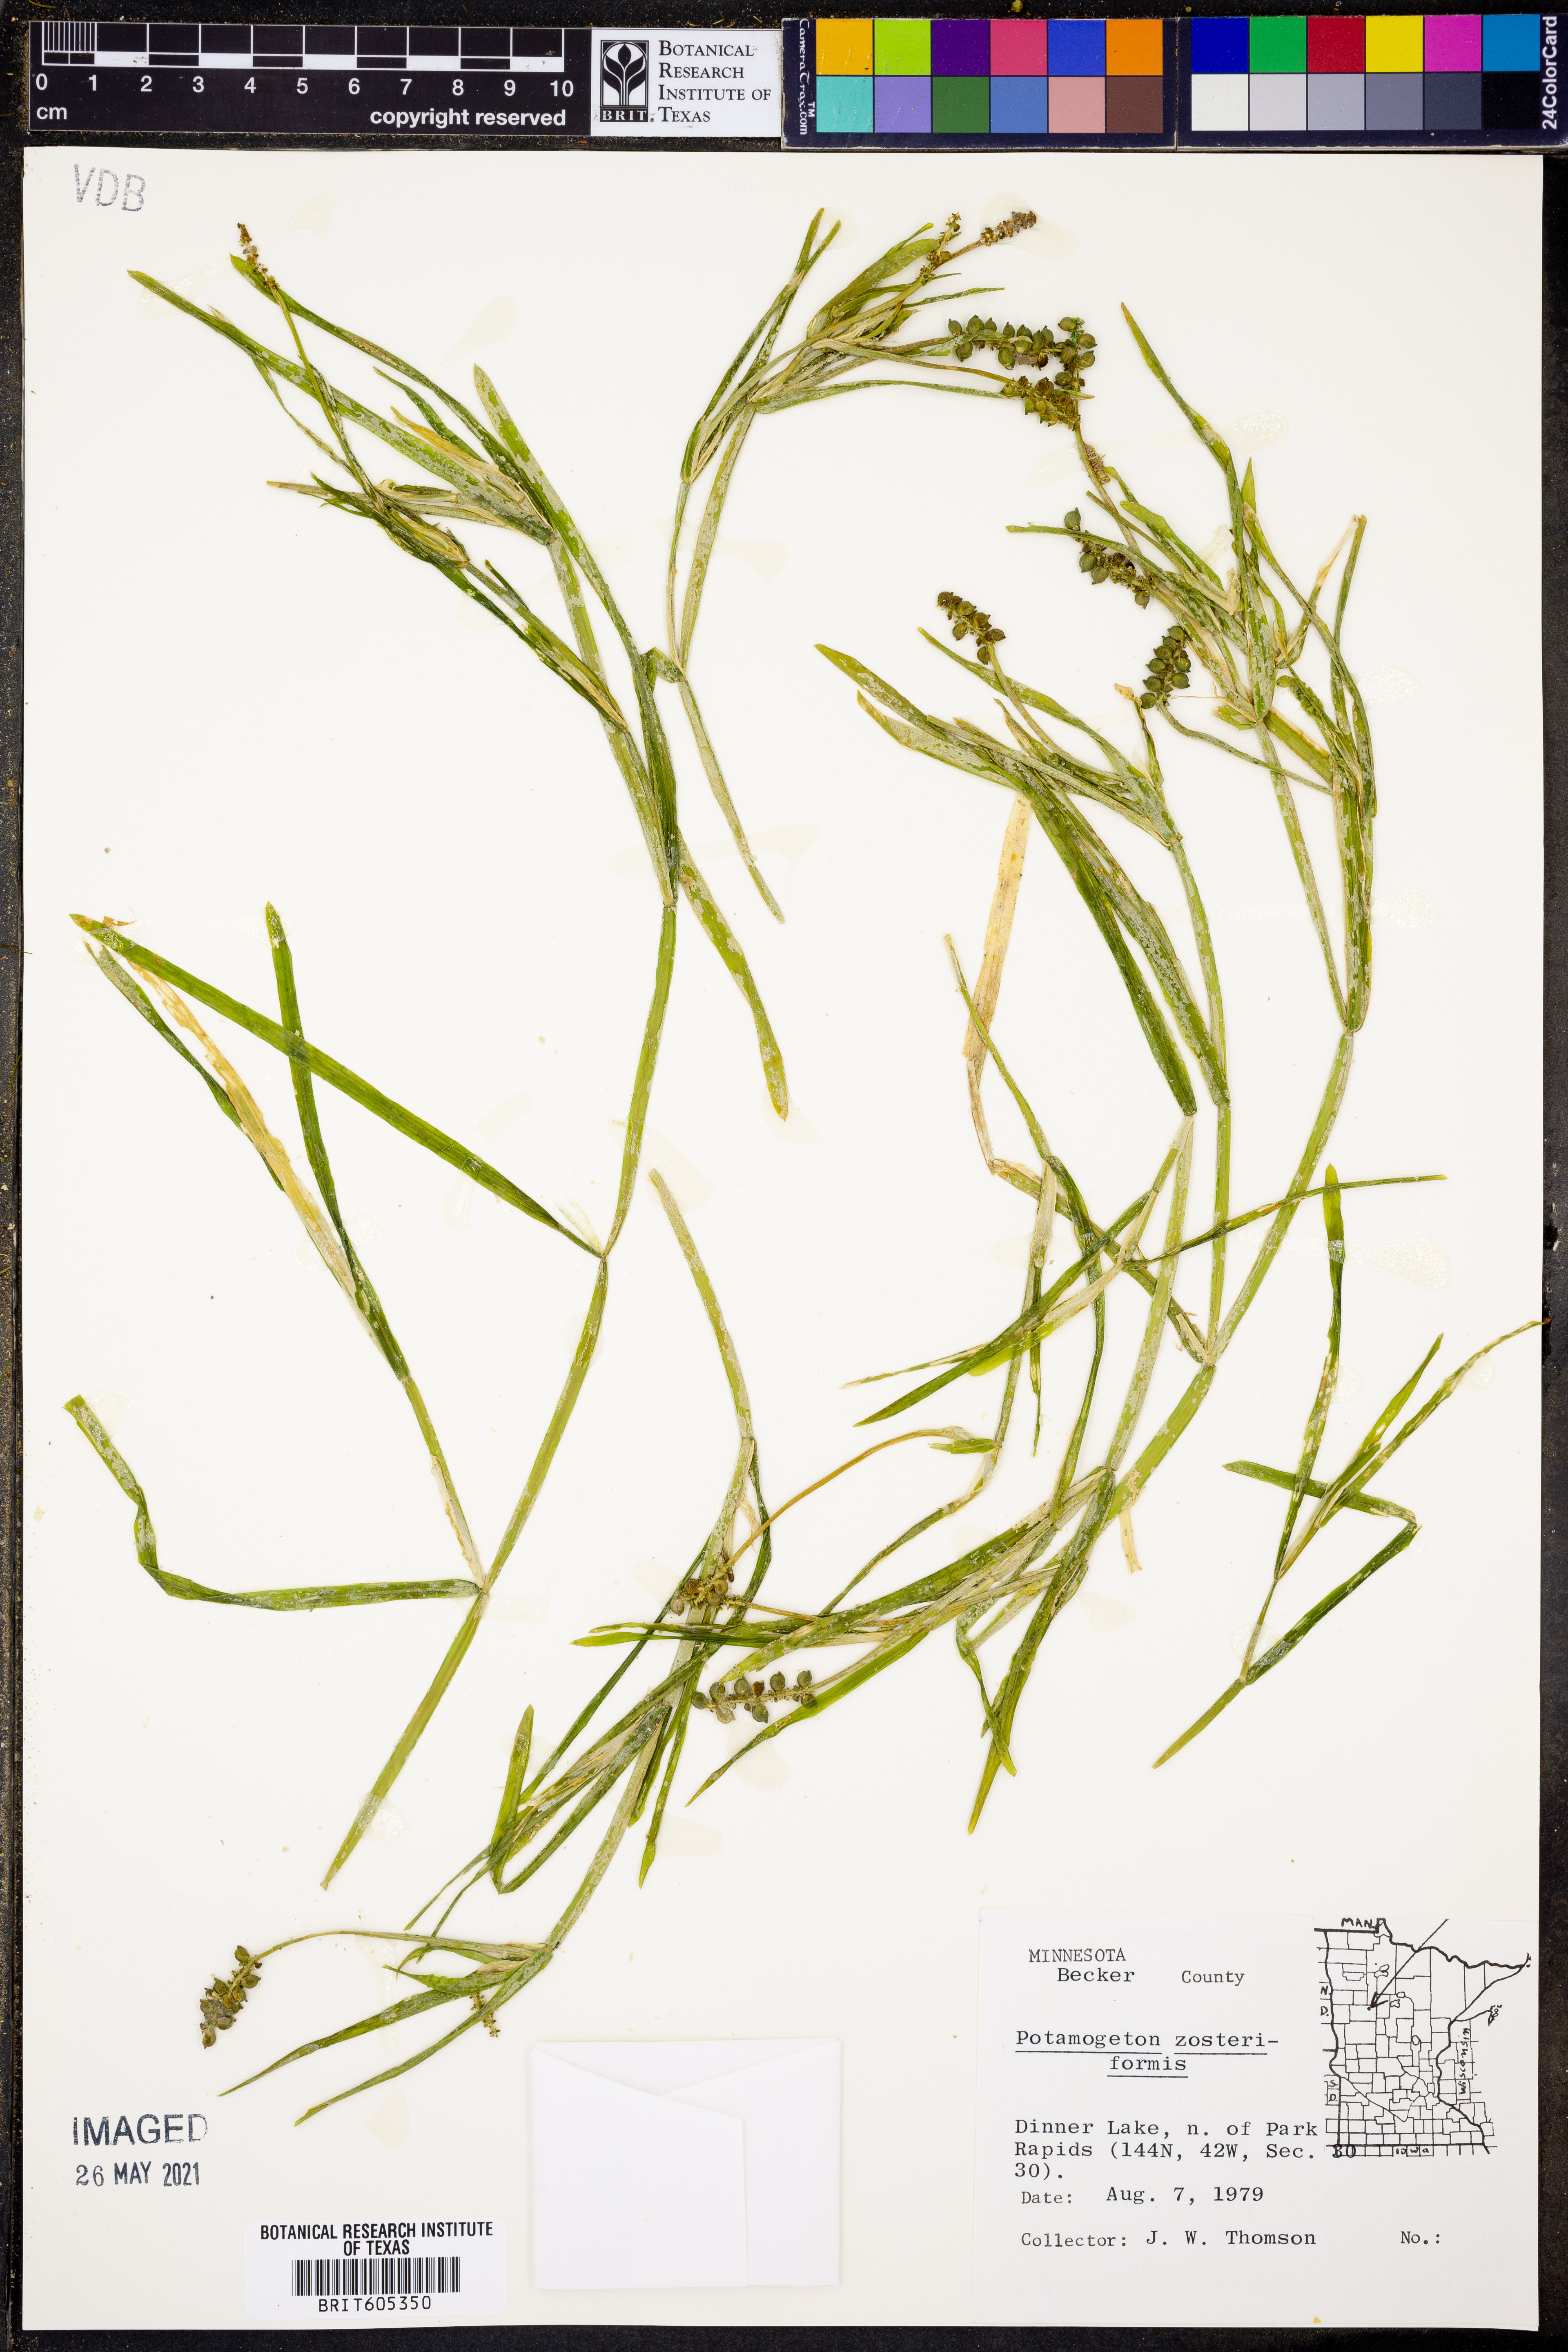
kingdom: Plantae
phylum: Tracheophyta
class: Liliopsida
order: Alismatales
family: Potamogetonaceae
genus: Potamogeton
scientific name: Potamogeton zosteriformis
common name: Eelgrass pondweed
